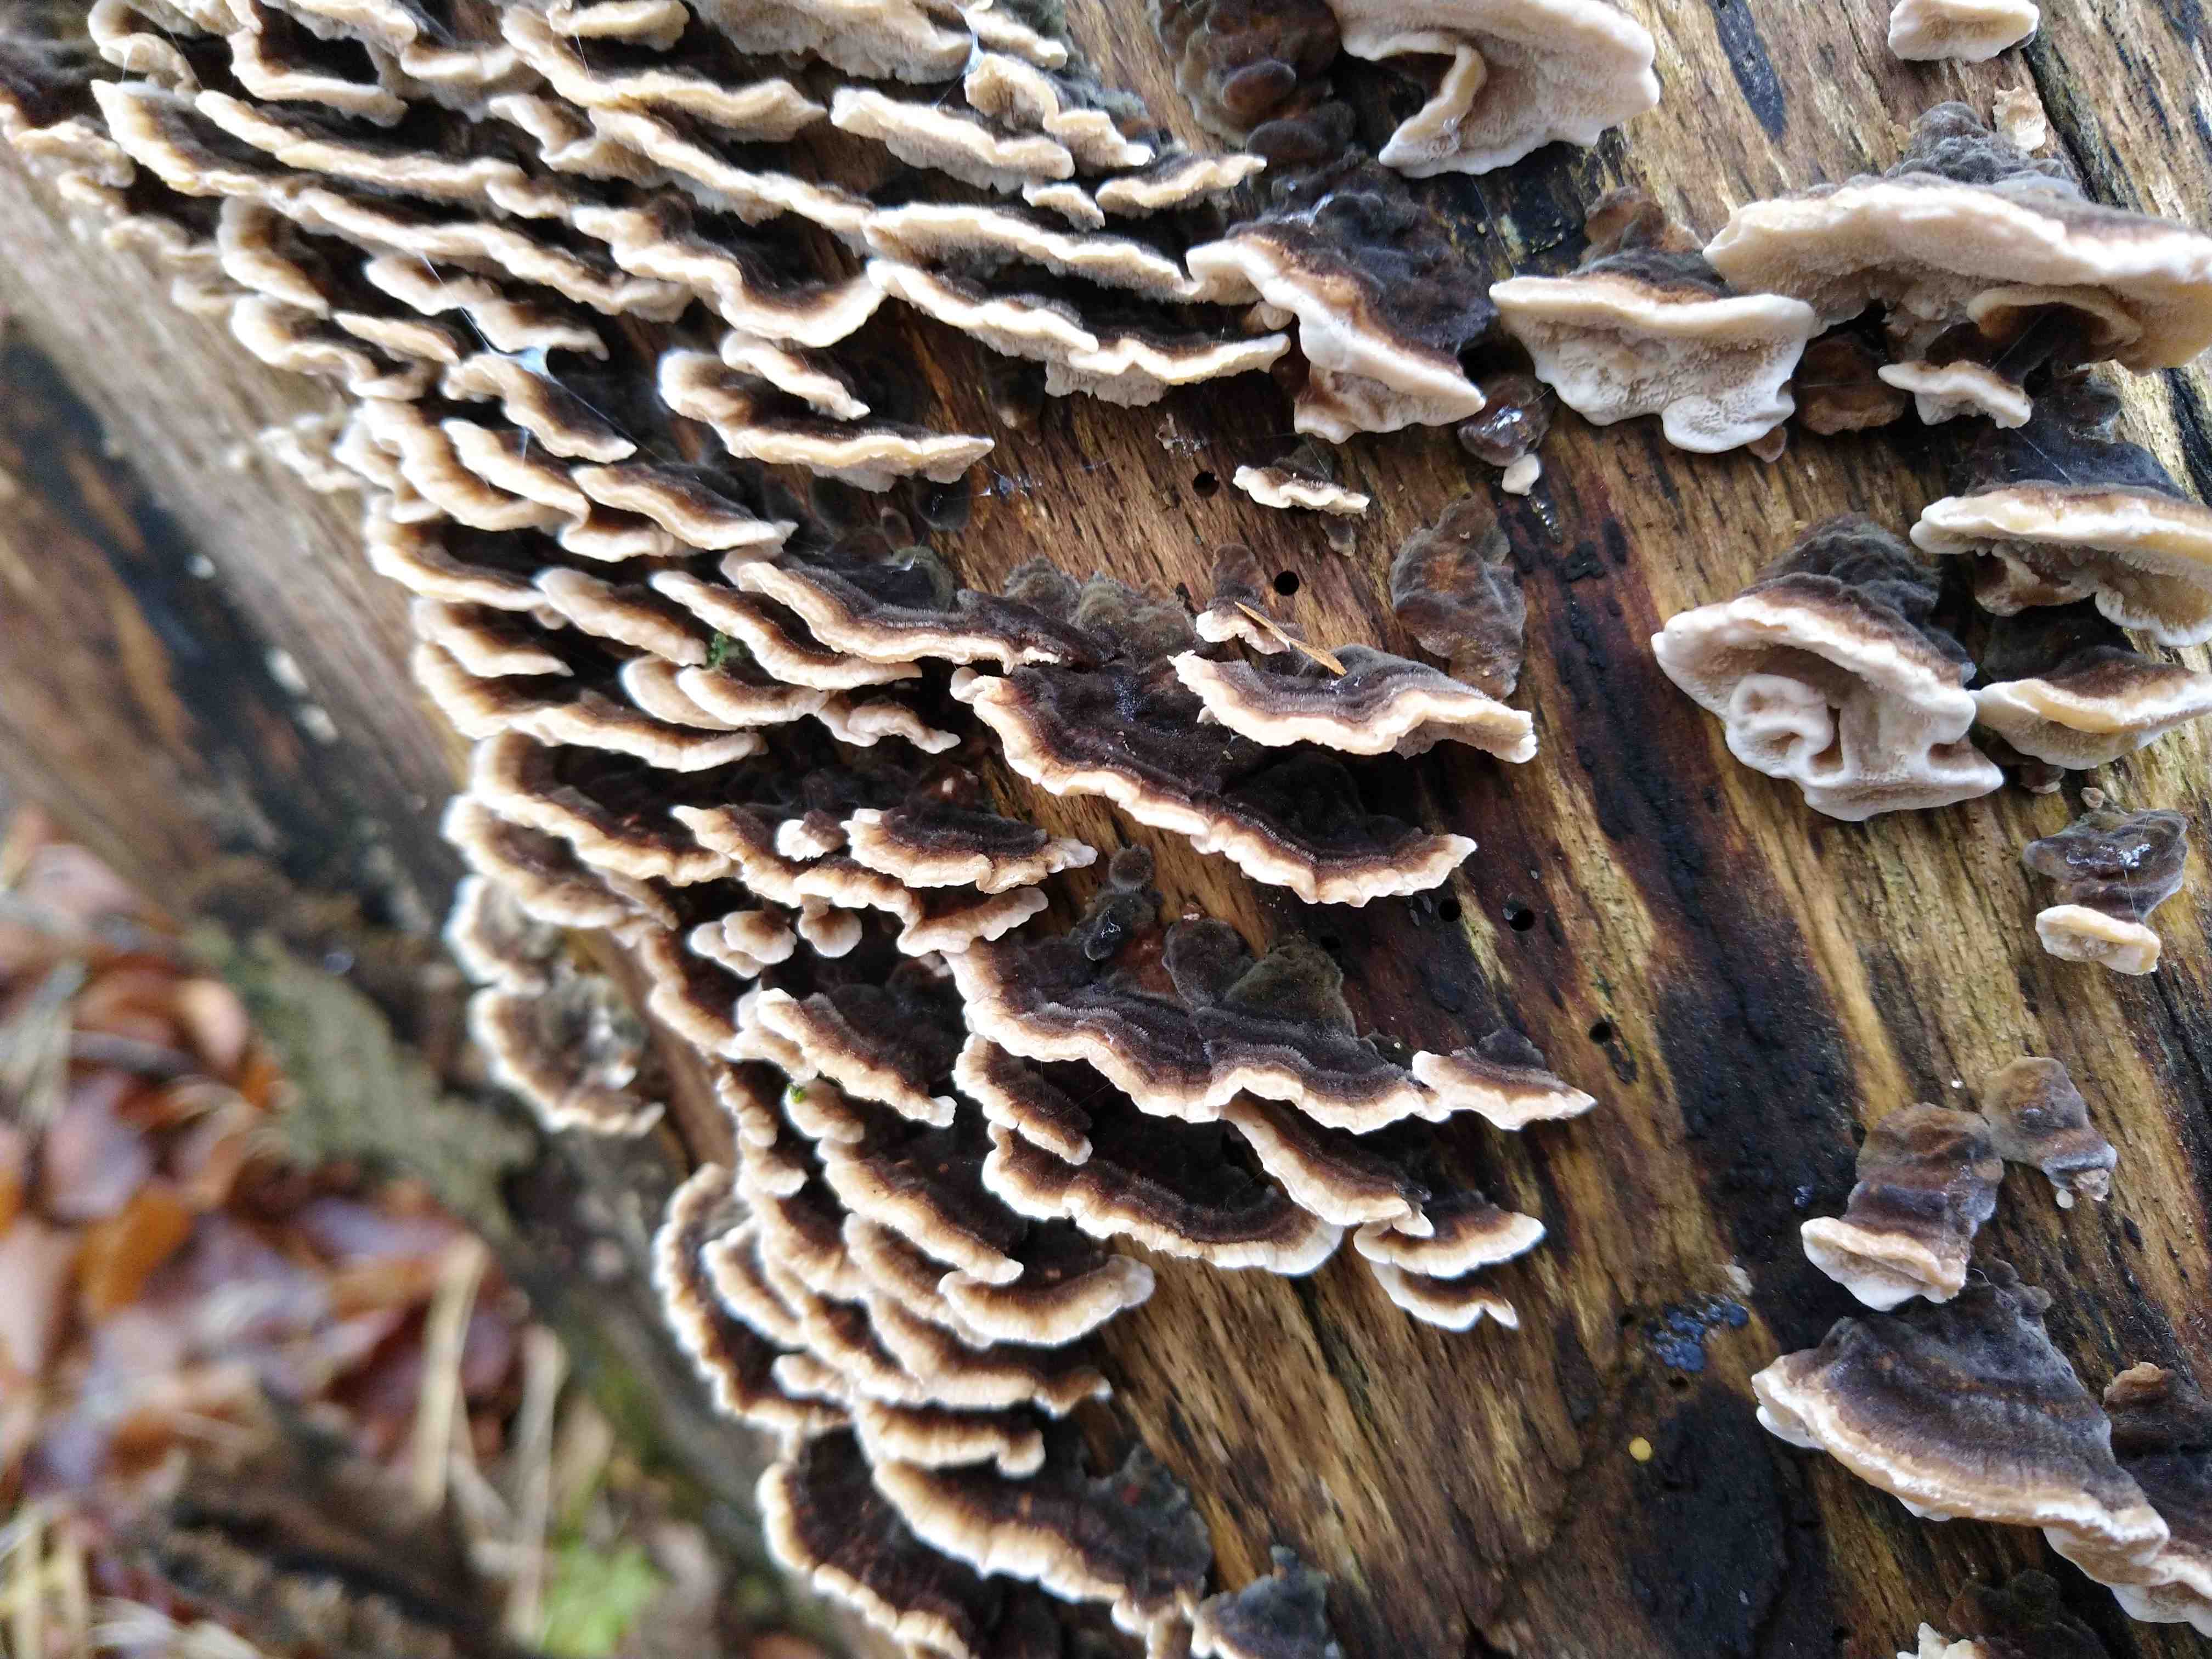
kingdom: Fungi
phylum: Basidiomycota
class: Agaricomycetes
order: Polyporales
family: Polyporaceae
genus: Trametes
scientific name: Trametes versicolor
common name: broget læderporesvamp
